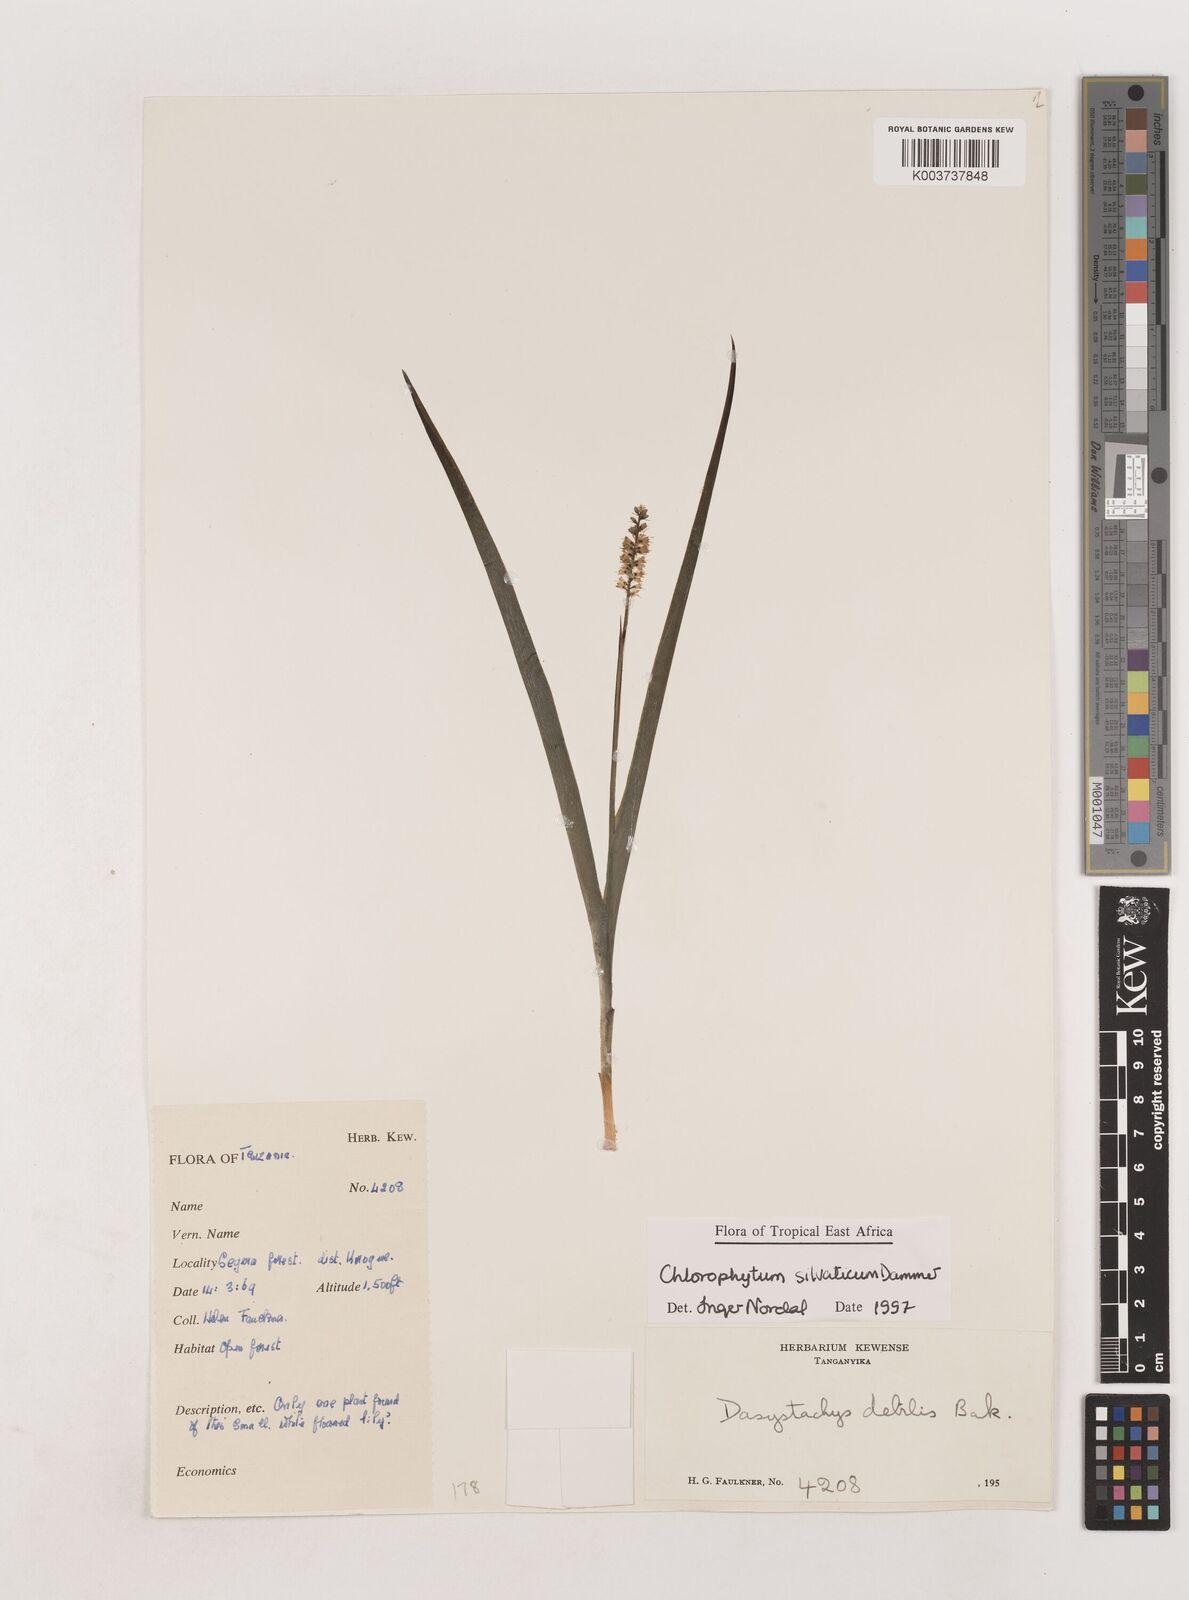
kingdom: Plantae
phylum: Tracheophyta
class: Liliopsida
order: Asparagales
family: Asparagaceae
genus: Chlorophytum
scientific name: Chlorophytum africanum
